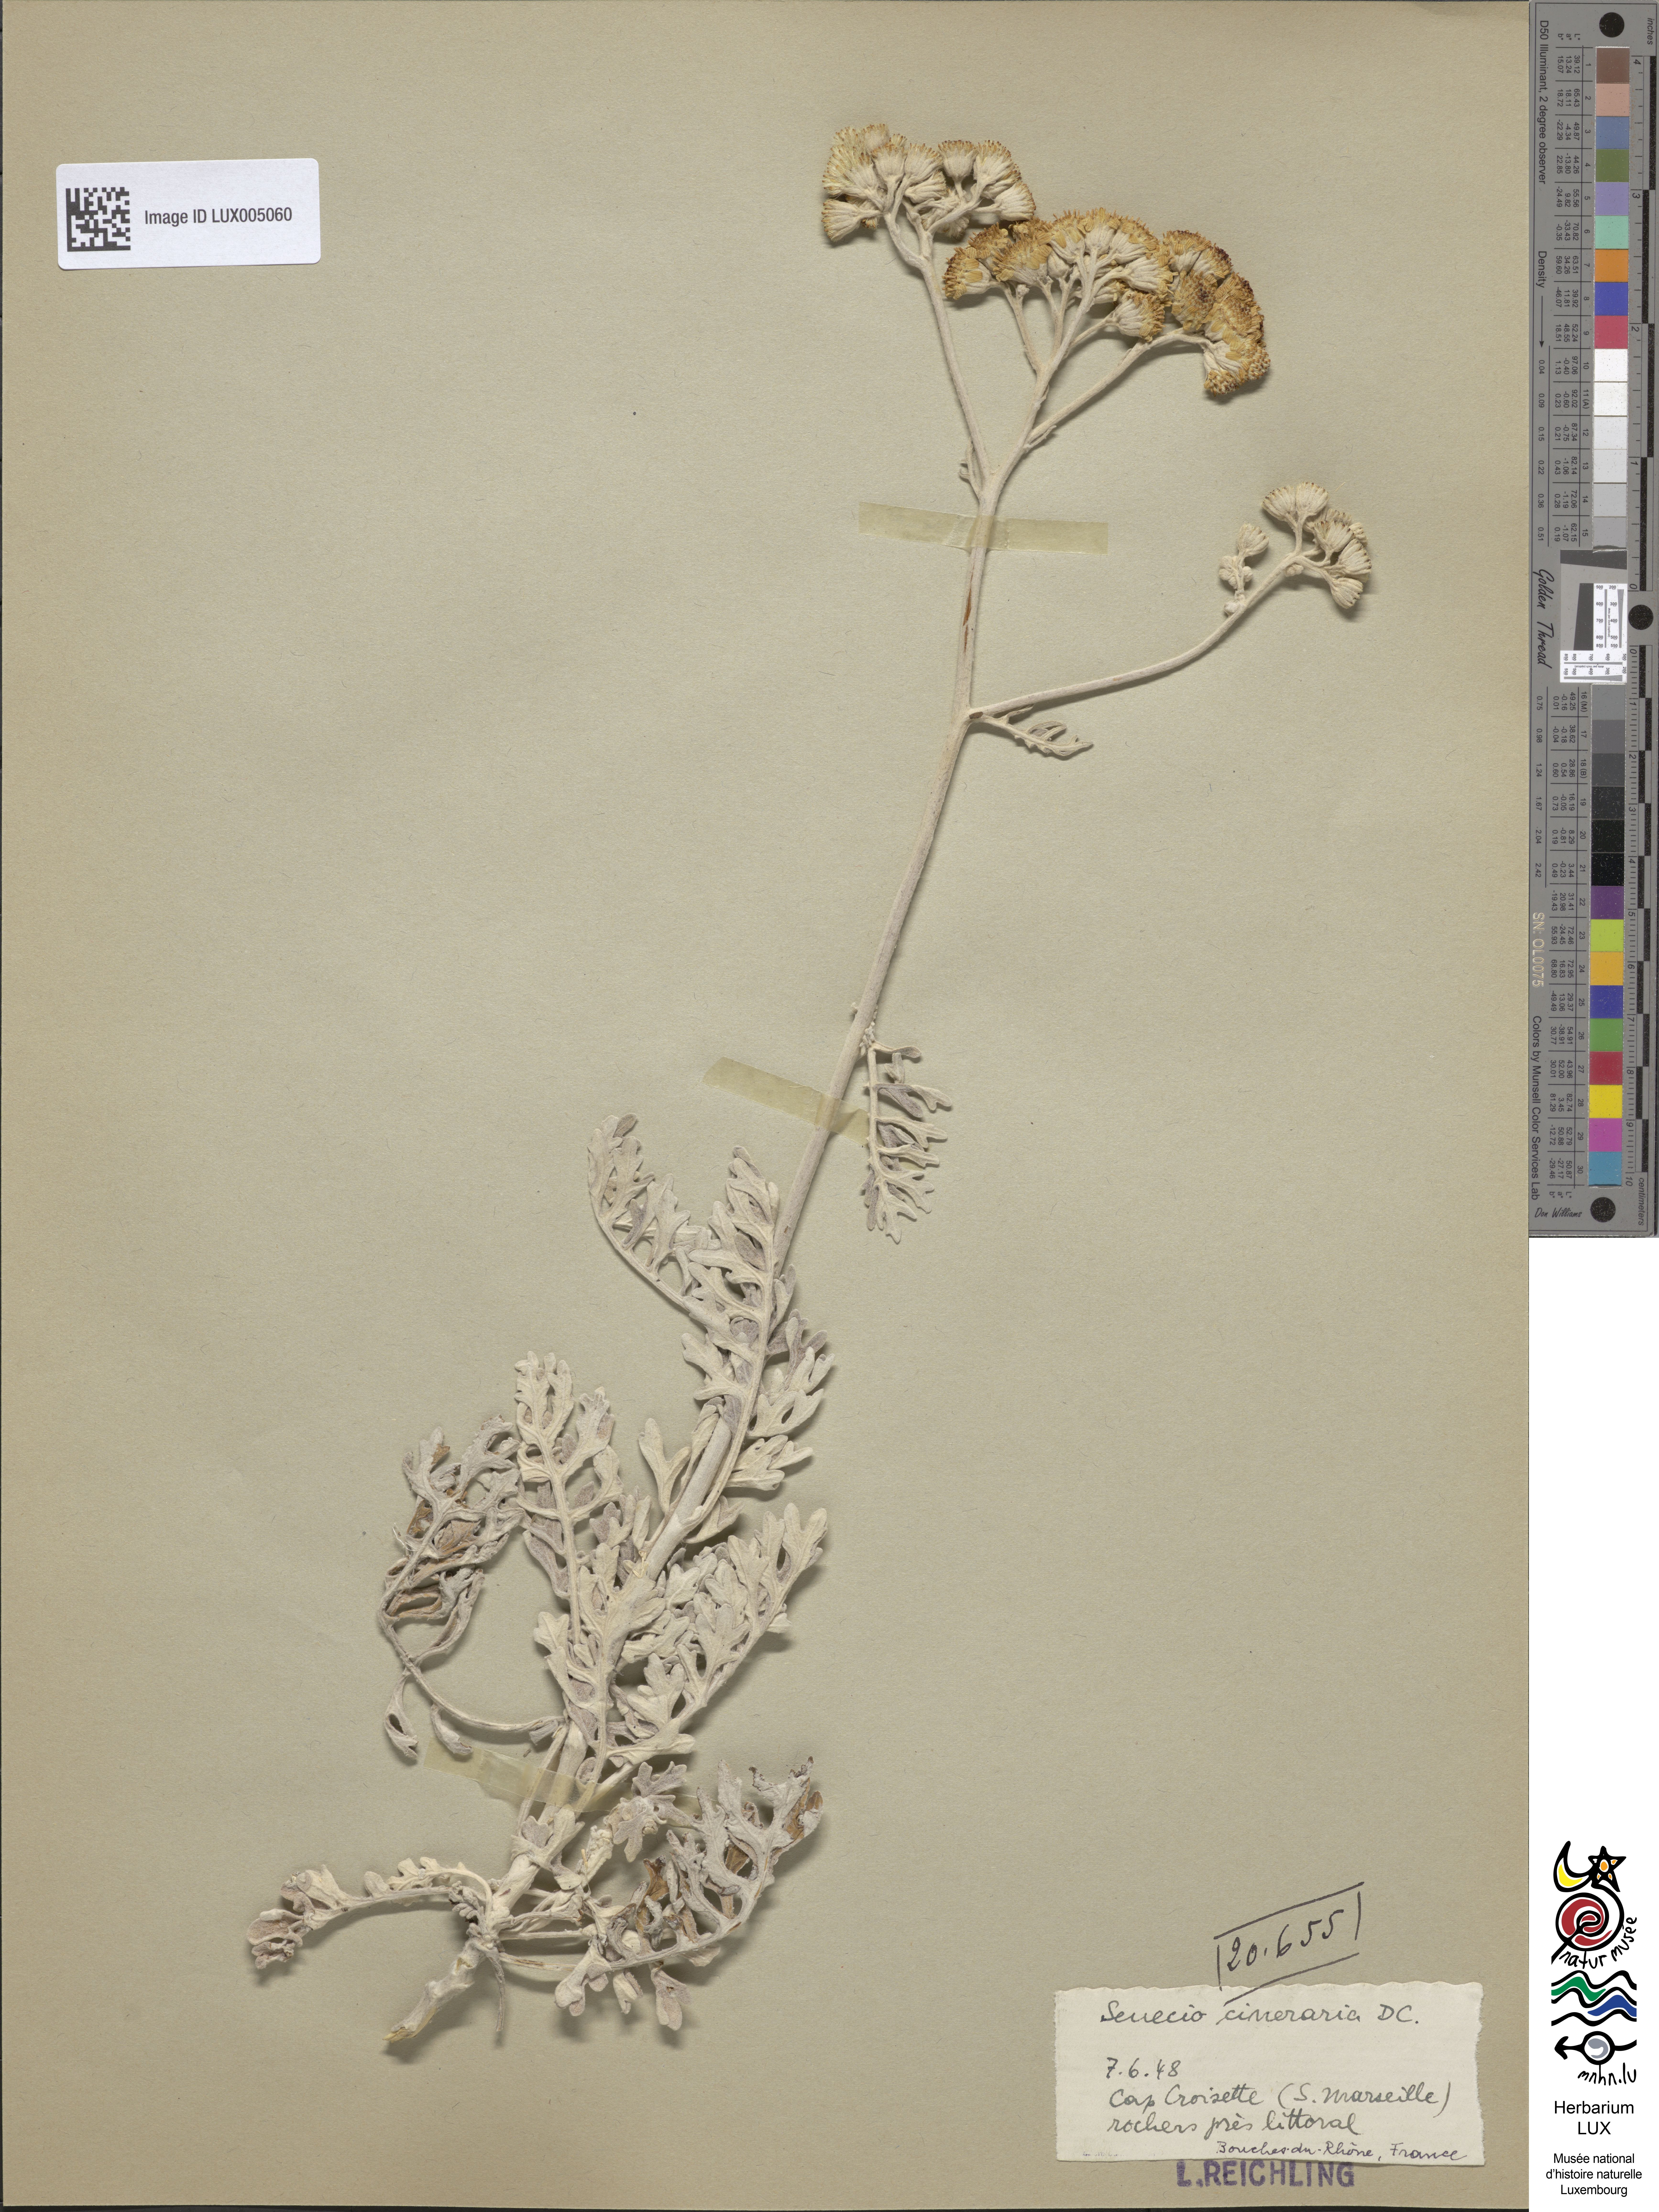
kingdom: Plantae
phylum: Tracheophyta
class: Magnoliopsida
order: Asterales
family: Asteraceae
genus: Jacobaea
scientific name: Jacobaea maritima
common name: Silver ragwort
